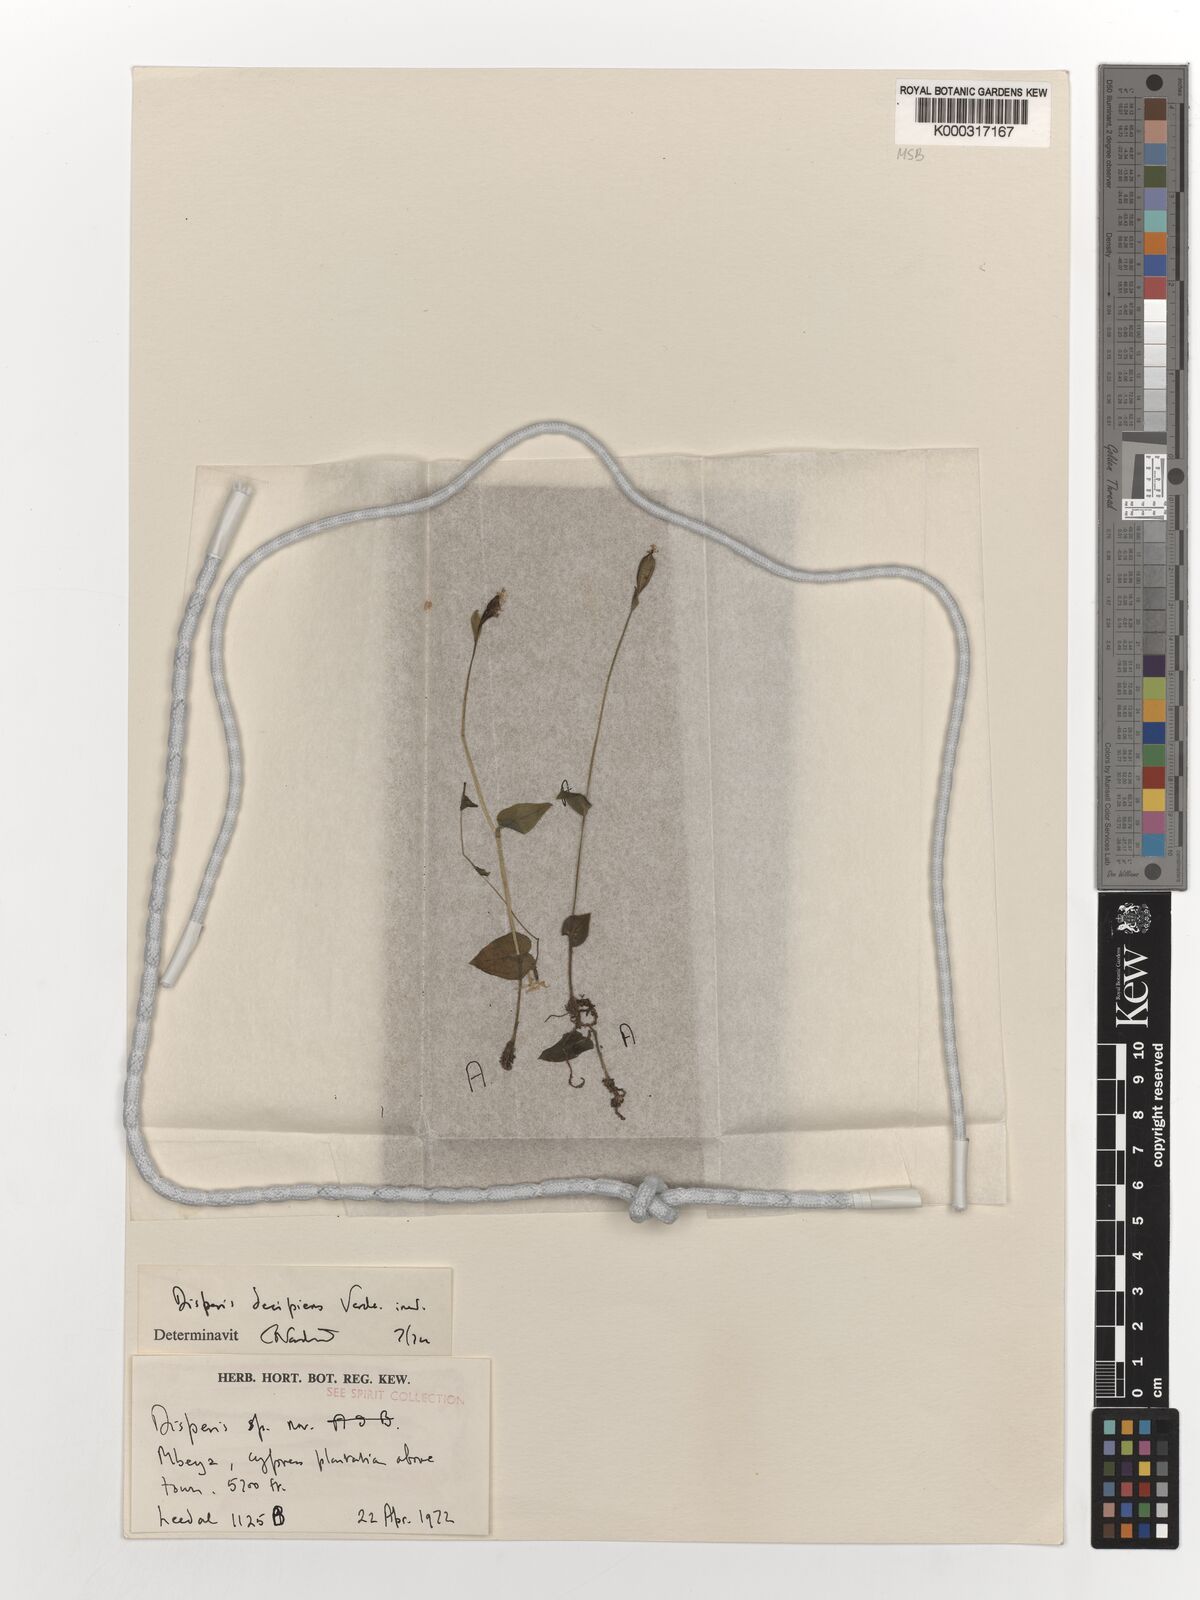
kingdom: Plantae
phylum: Tracheophyta
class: Liliopsida
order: Asparagales
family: Orchidaceae
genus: Disperis
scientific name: Disperis decipiens
